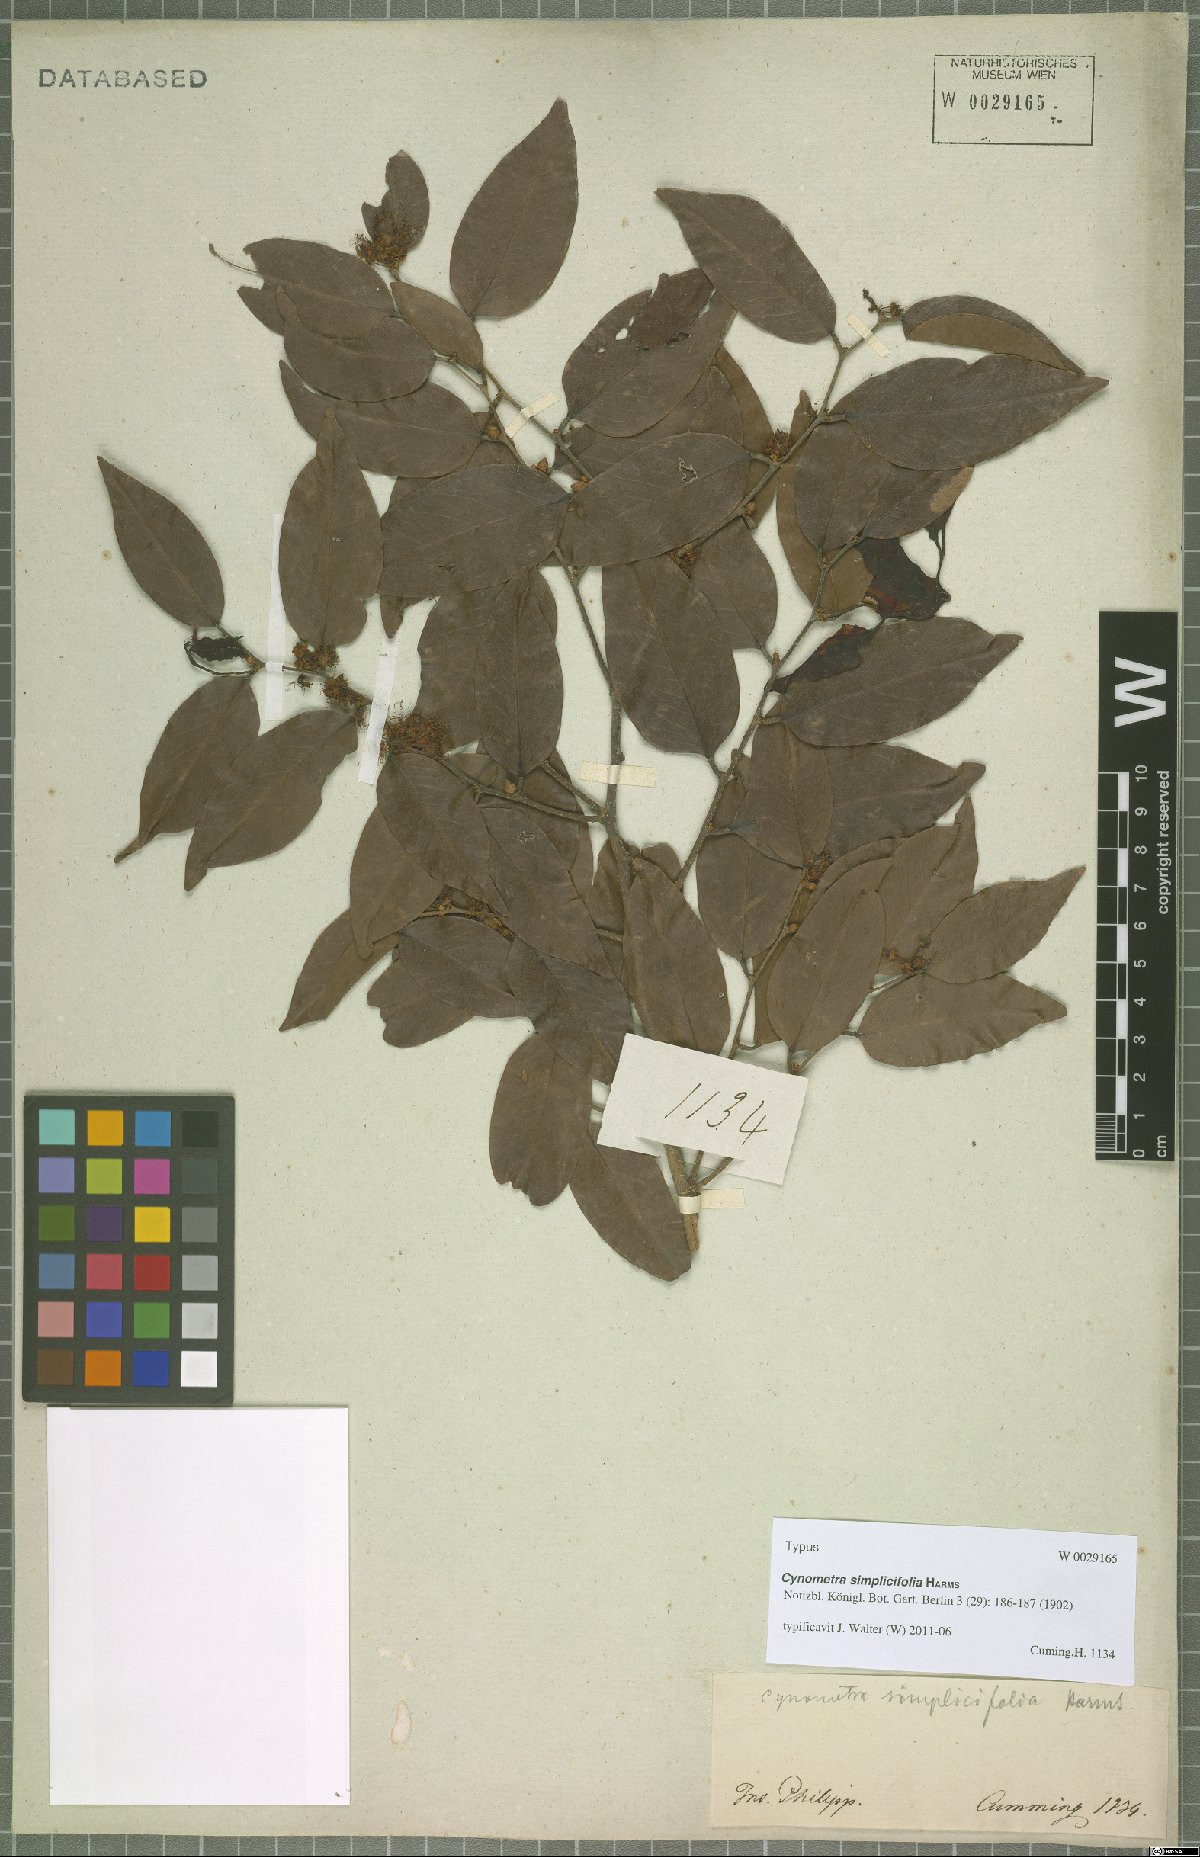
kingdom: Plantae
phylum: Tracheophyta
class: Magnoliopsida
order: Fabales
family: Fabaceae
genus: Cynometra
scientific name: Cynometra simplicifolia
